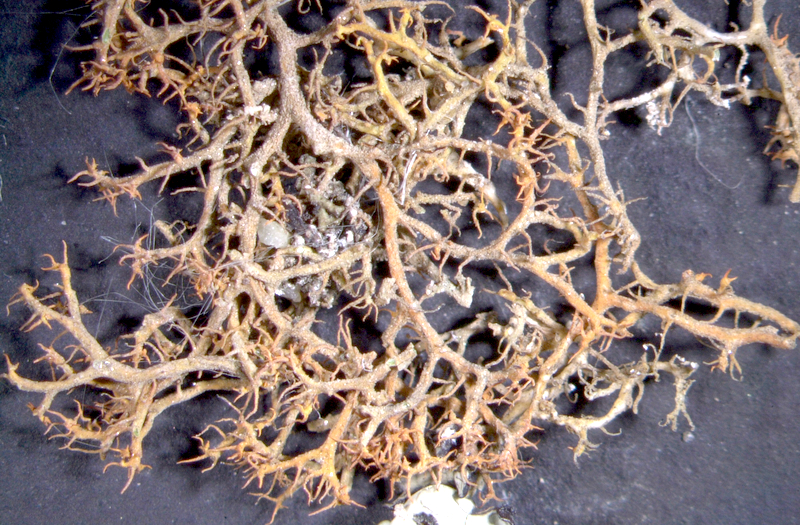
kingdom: Fungi
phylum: Ascomycota
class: Lecanoromycetes
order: Teloschistales
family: Teloschistaceae
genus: Caloplaca
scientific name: Caloplaca
